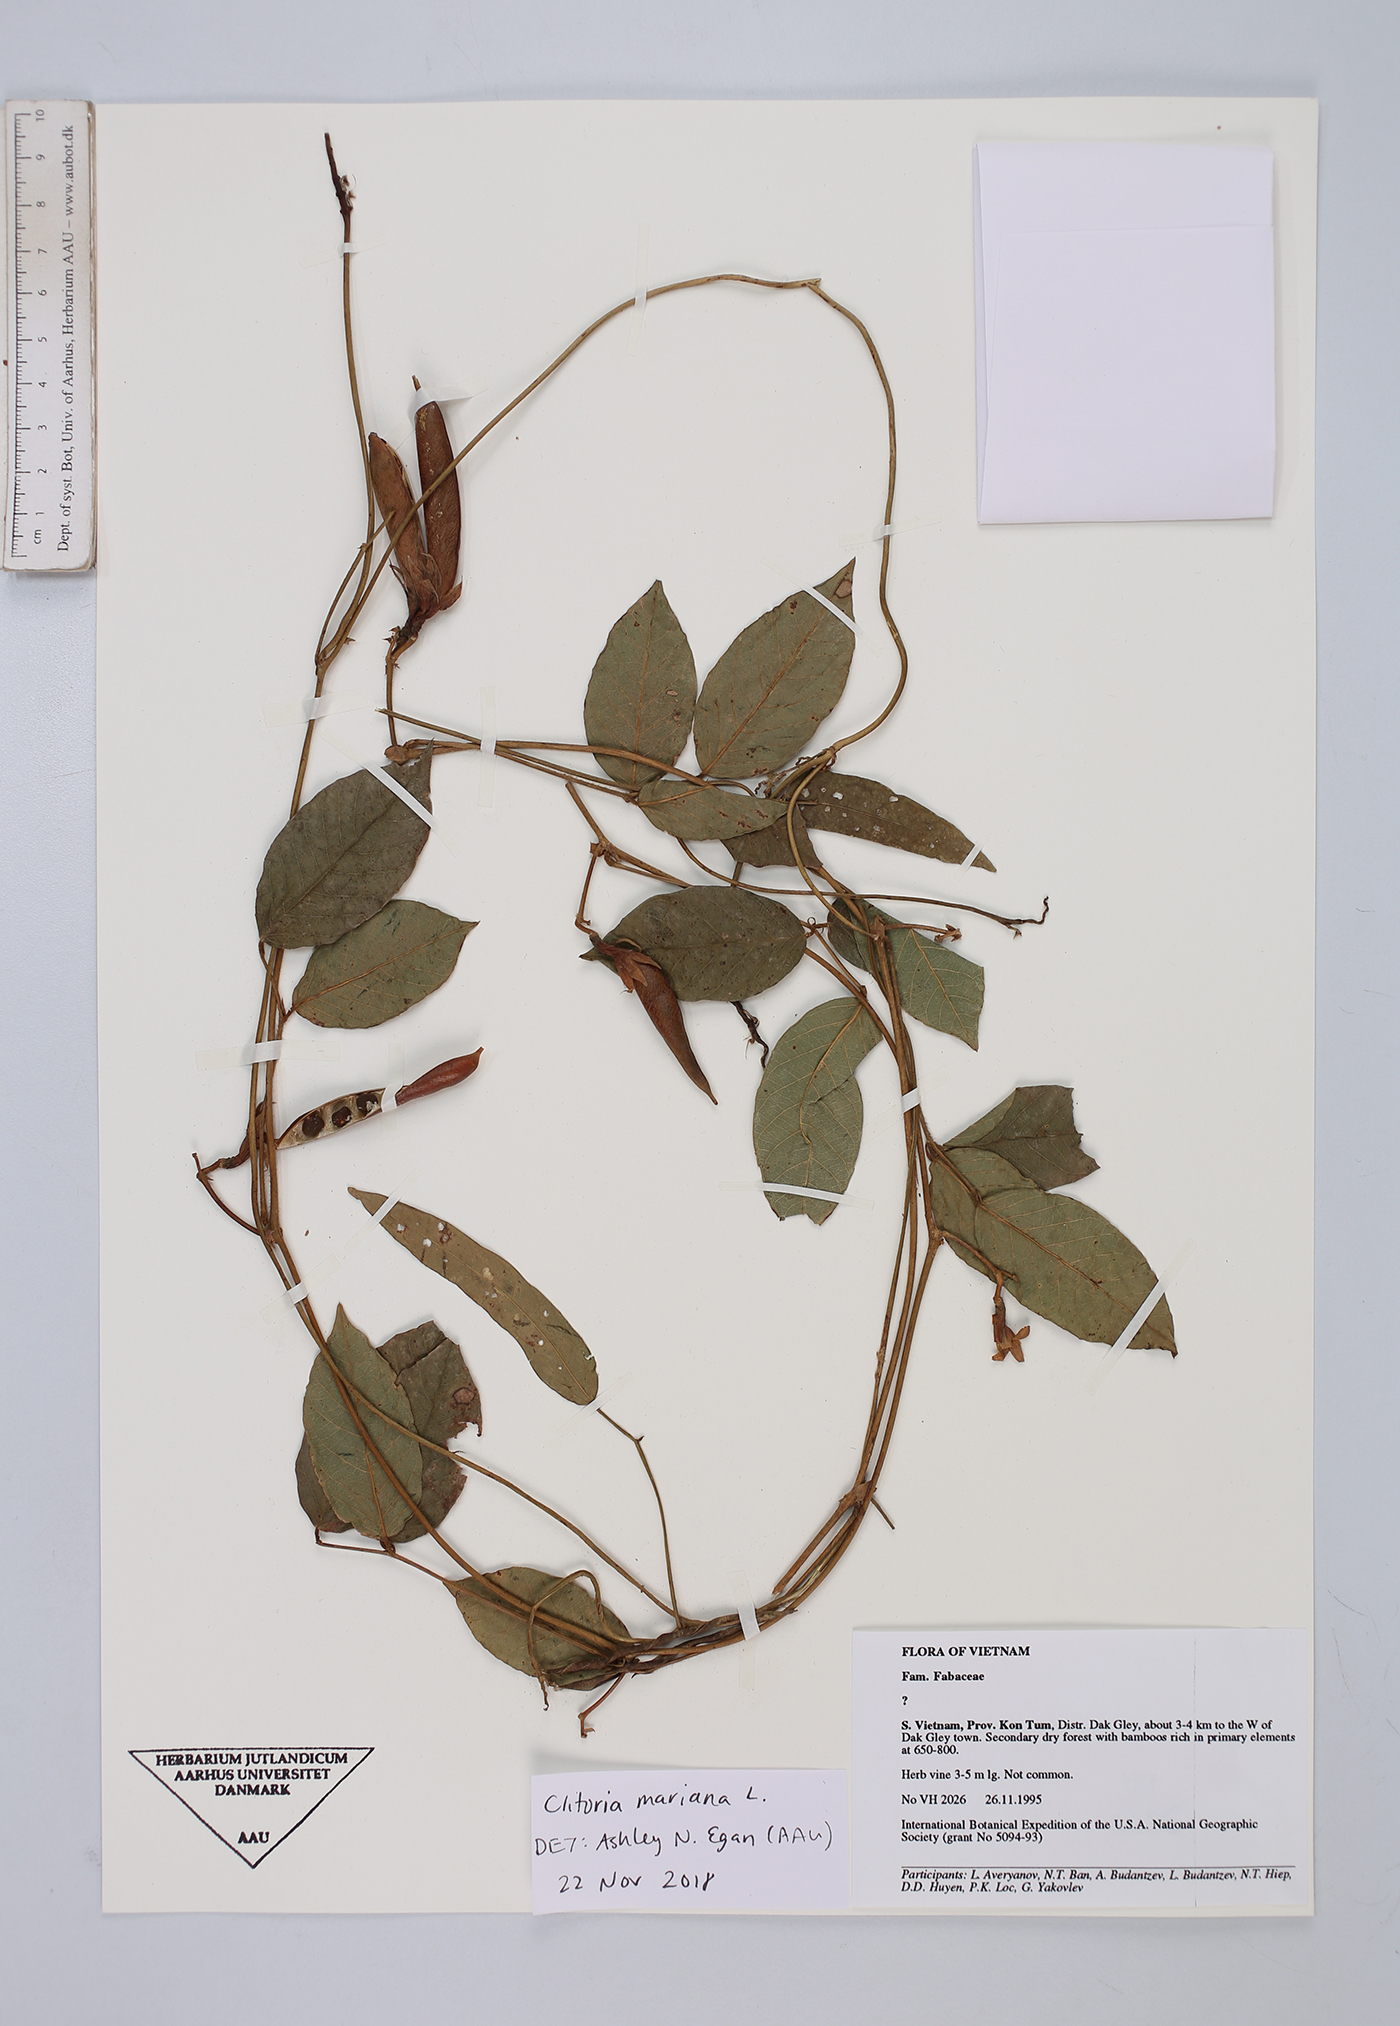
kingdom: Plantae
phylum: Tracheophyta
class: Magnoliopsida
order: Fabales
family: Fabaceae
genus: Clitoria
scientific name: Clitoria mariana
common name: Butterfly-pea
